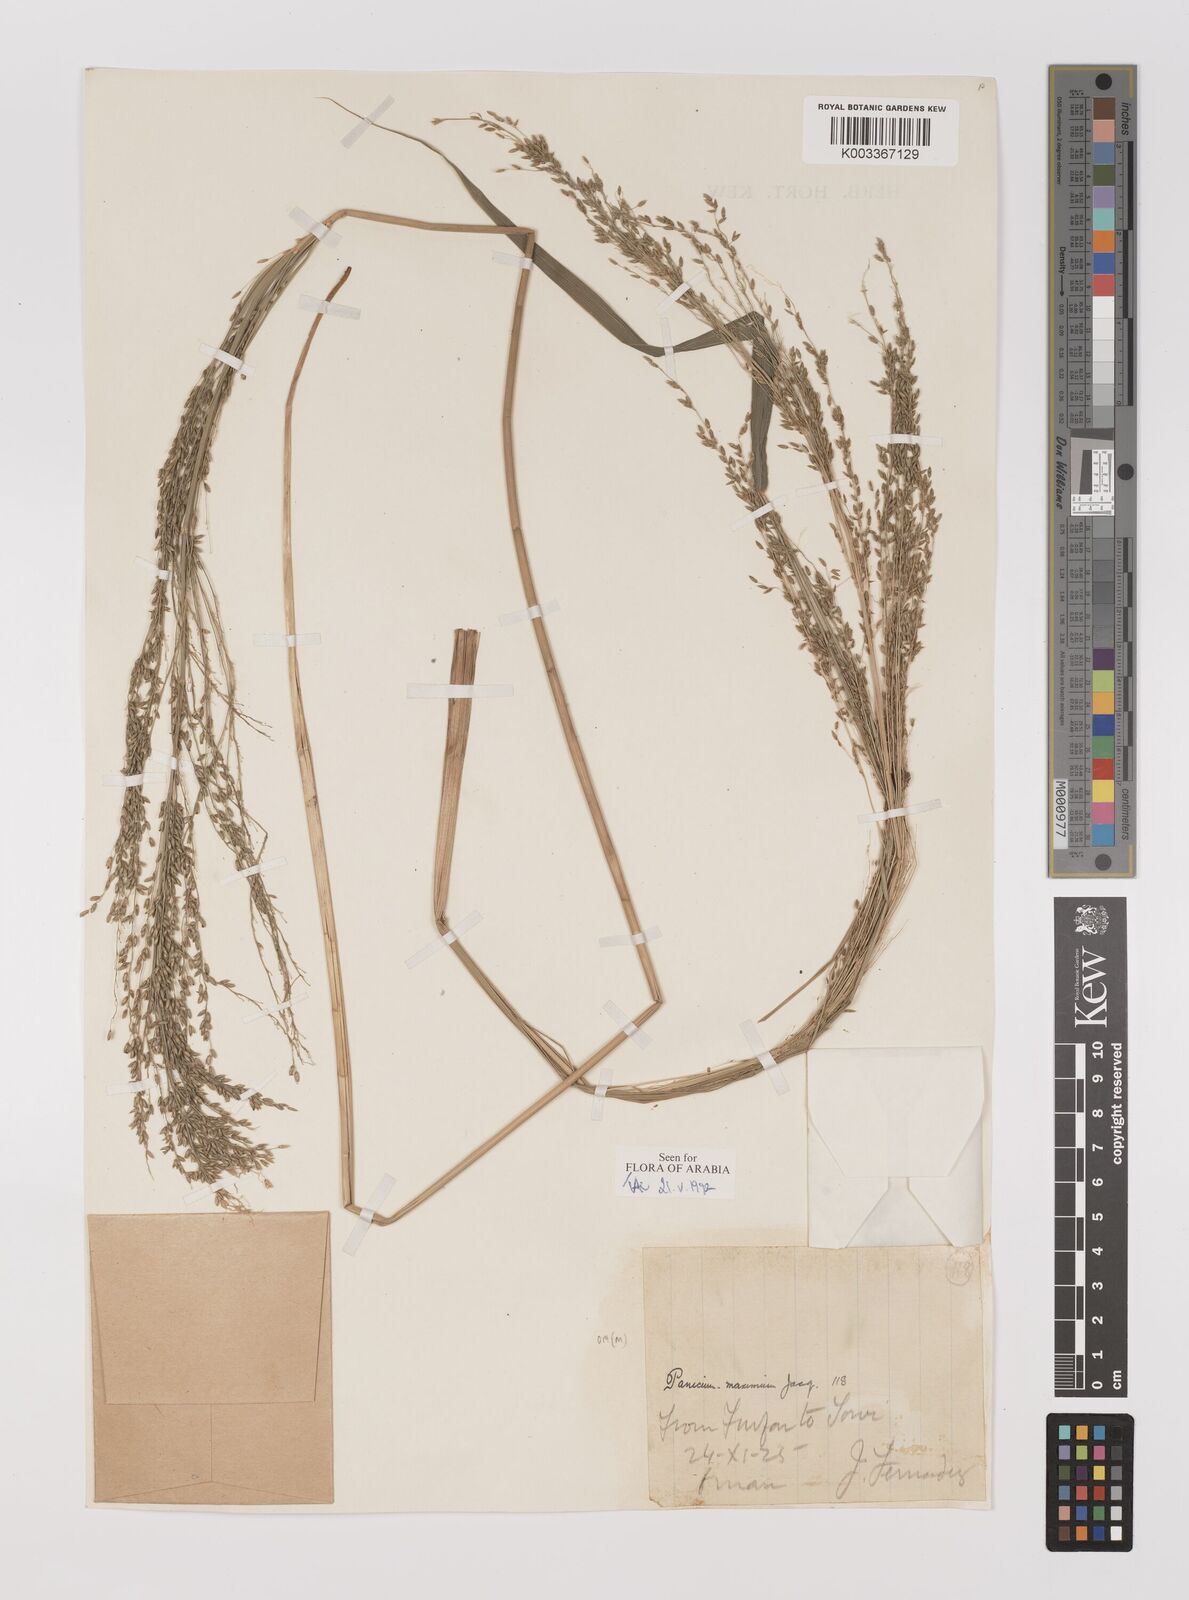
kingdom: Plantae
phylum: Tracheophyta
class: Liliopsida
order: Poales
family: Poaceae
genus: Megathyrsus
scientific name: Megathyrsus maximus
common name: Guineagrass
